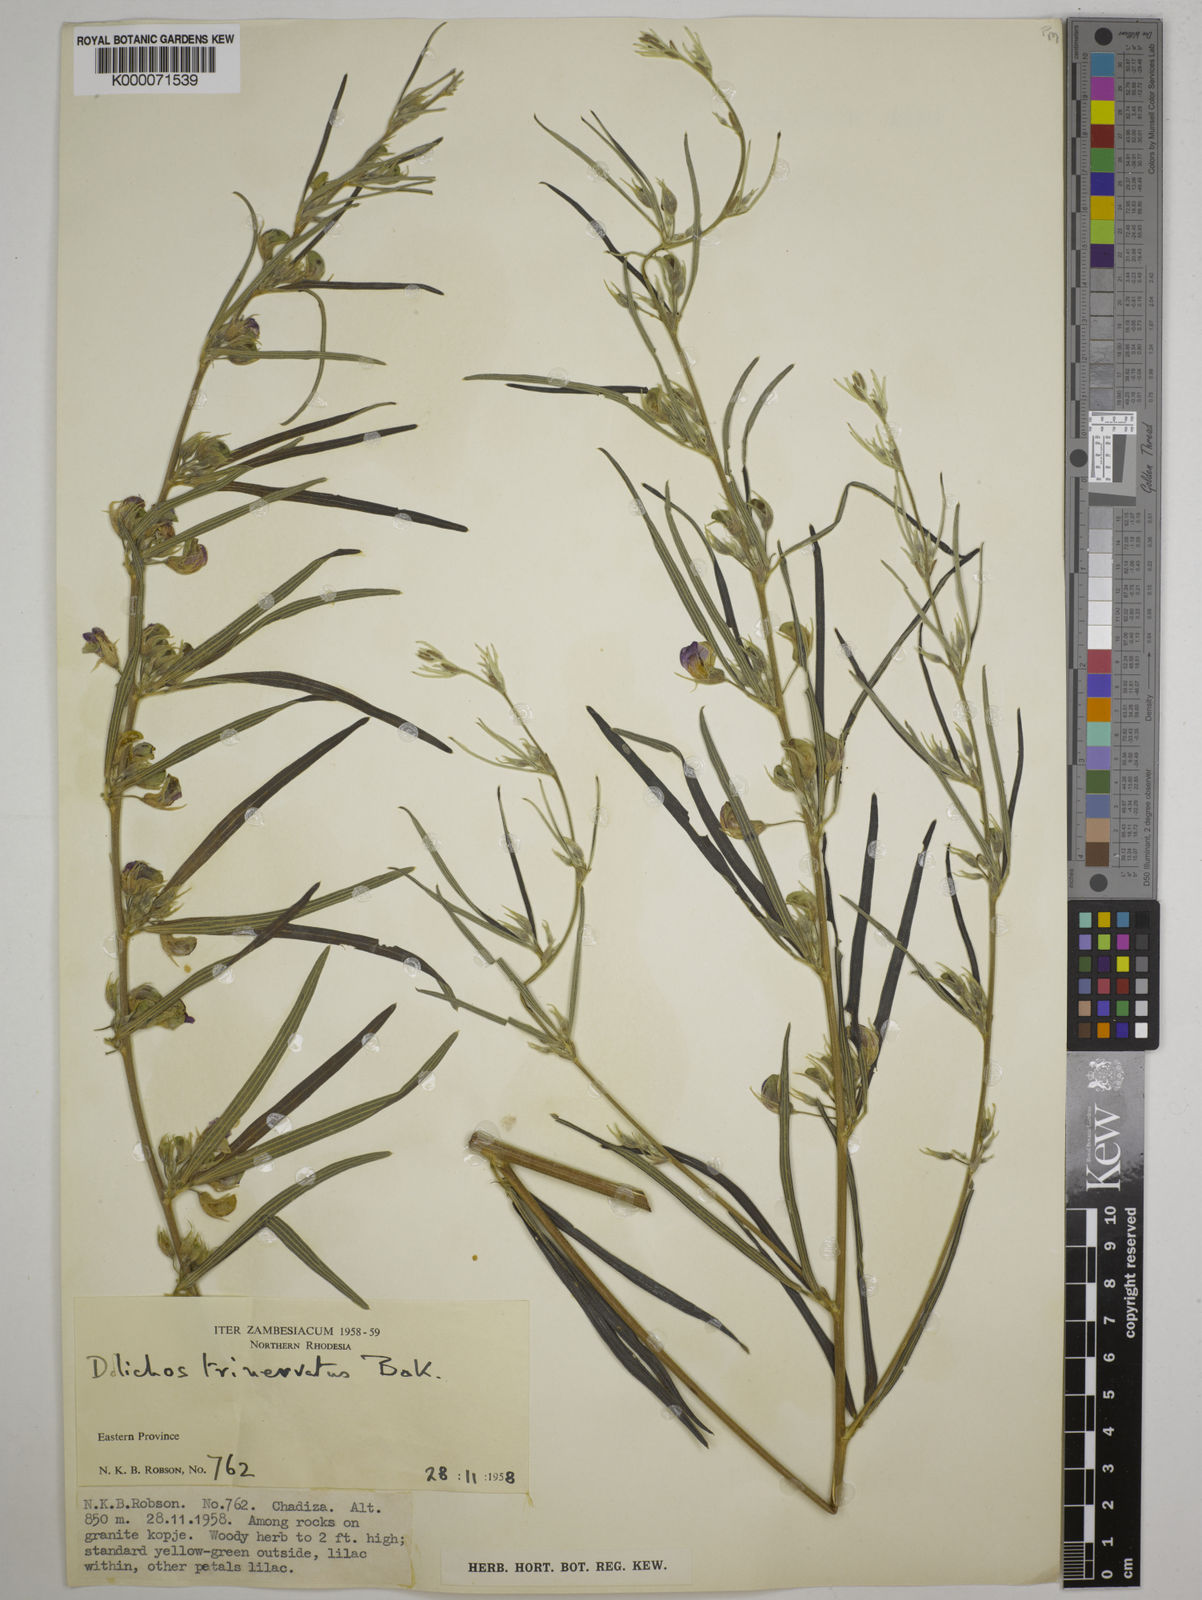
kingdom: Plantae
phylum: Tracheophyta
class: Magnoliopsida
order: Fabales
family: Fabaceae
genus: Dolichos
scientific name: Dolichos trinervatus
